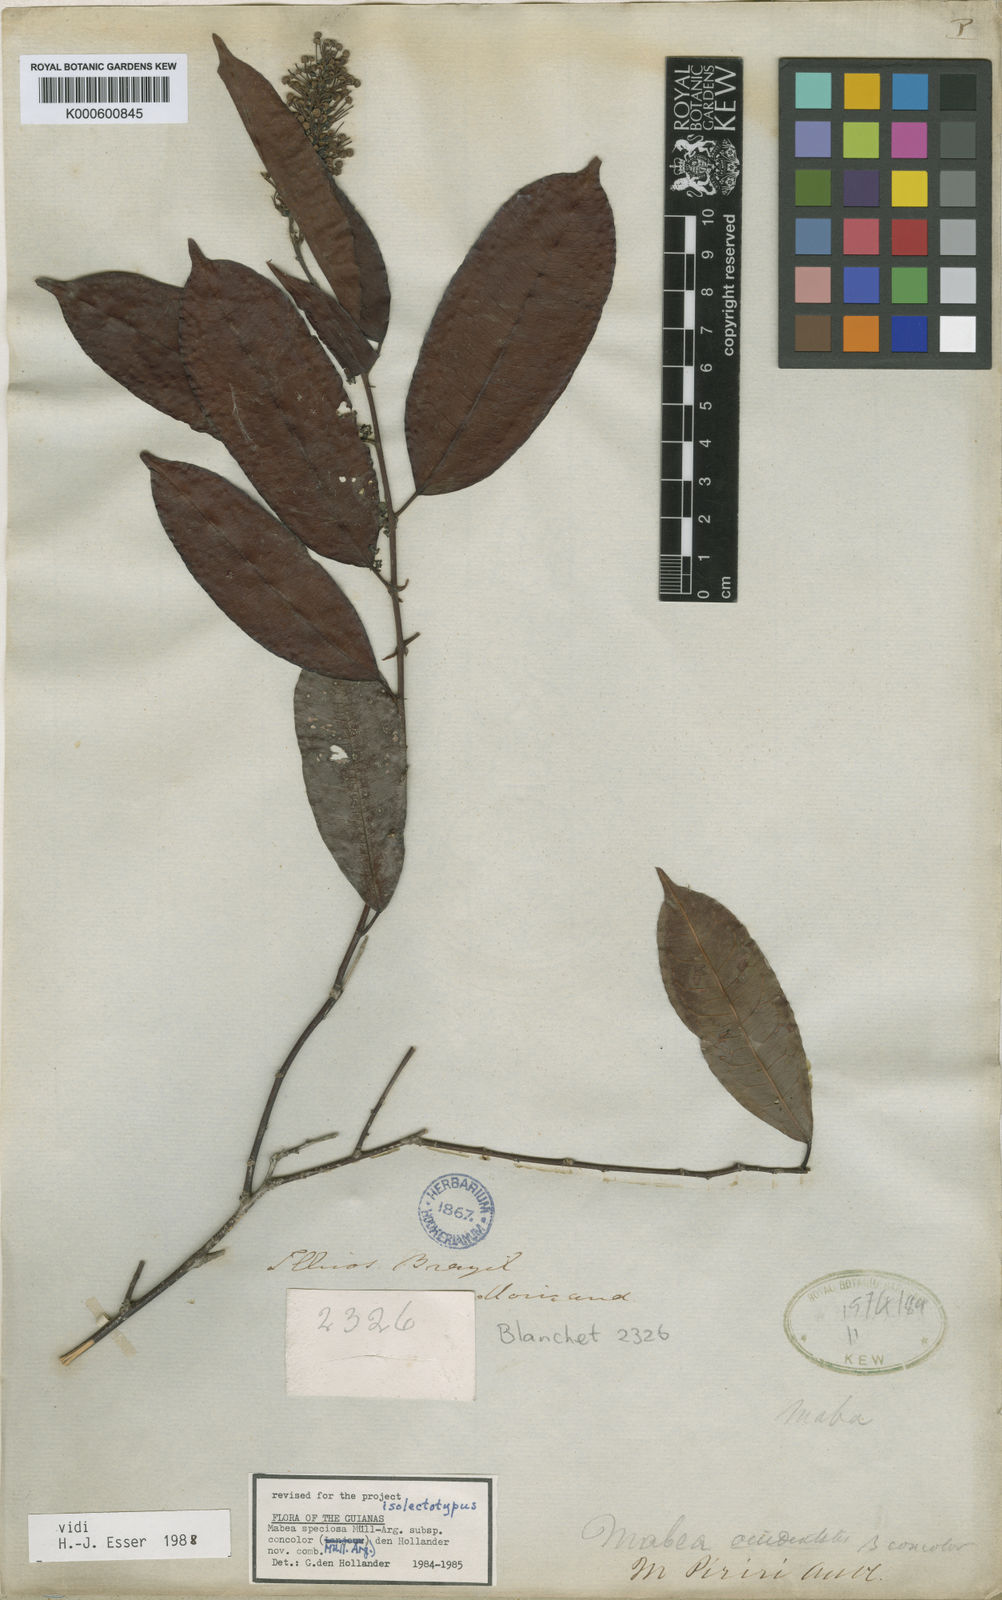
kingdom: Plantae
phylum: Tracheophyta
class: Magnoliopsida
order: Malpighiales
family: Euphorbiaceae
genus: Mabea
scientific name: Mabea
